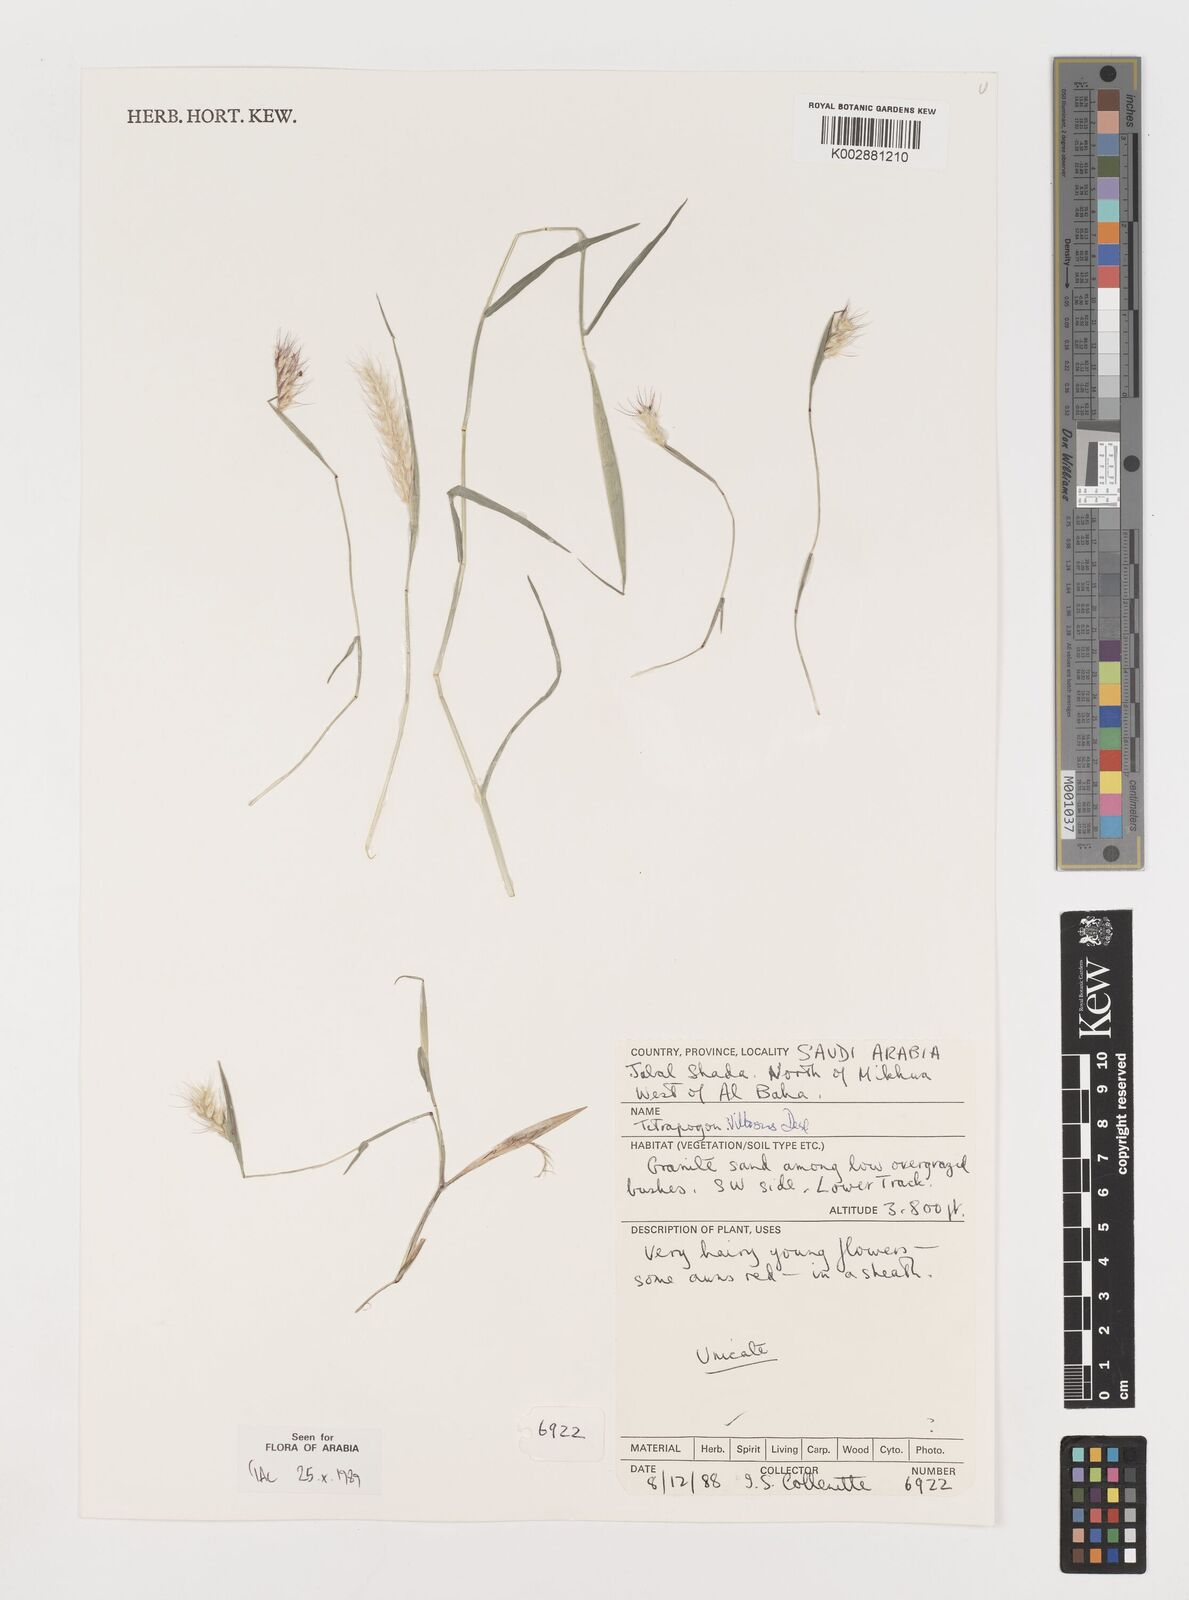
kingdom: Plantae
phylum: Tracheophyta
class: Liliopsida
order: Poales
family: Poaceae
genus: Tetrapogon
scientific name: Tetrapogon villosus
